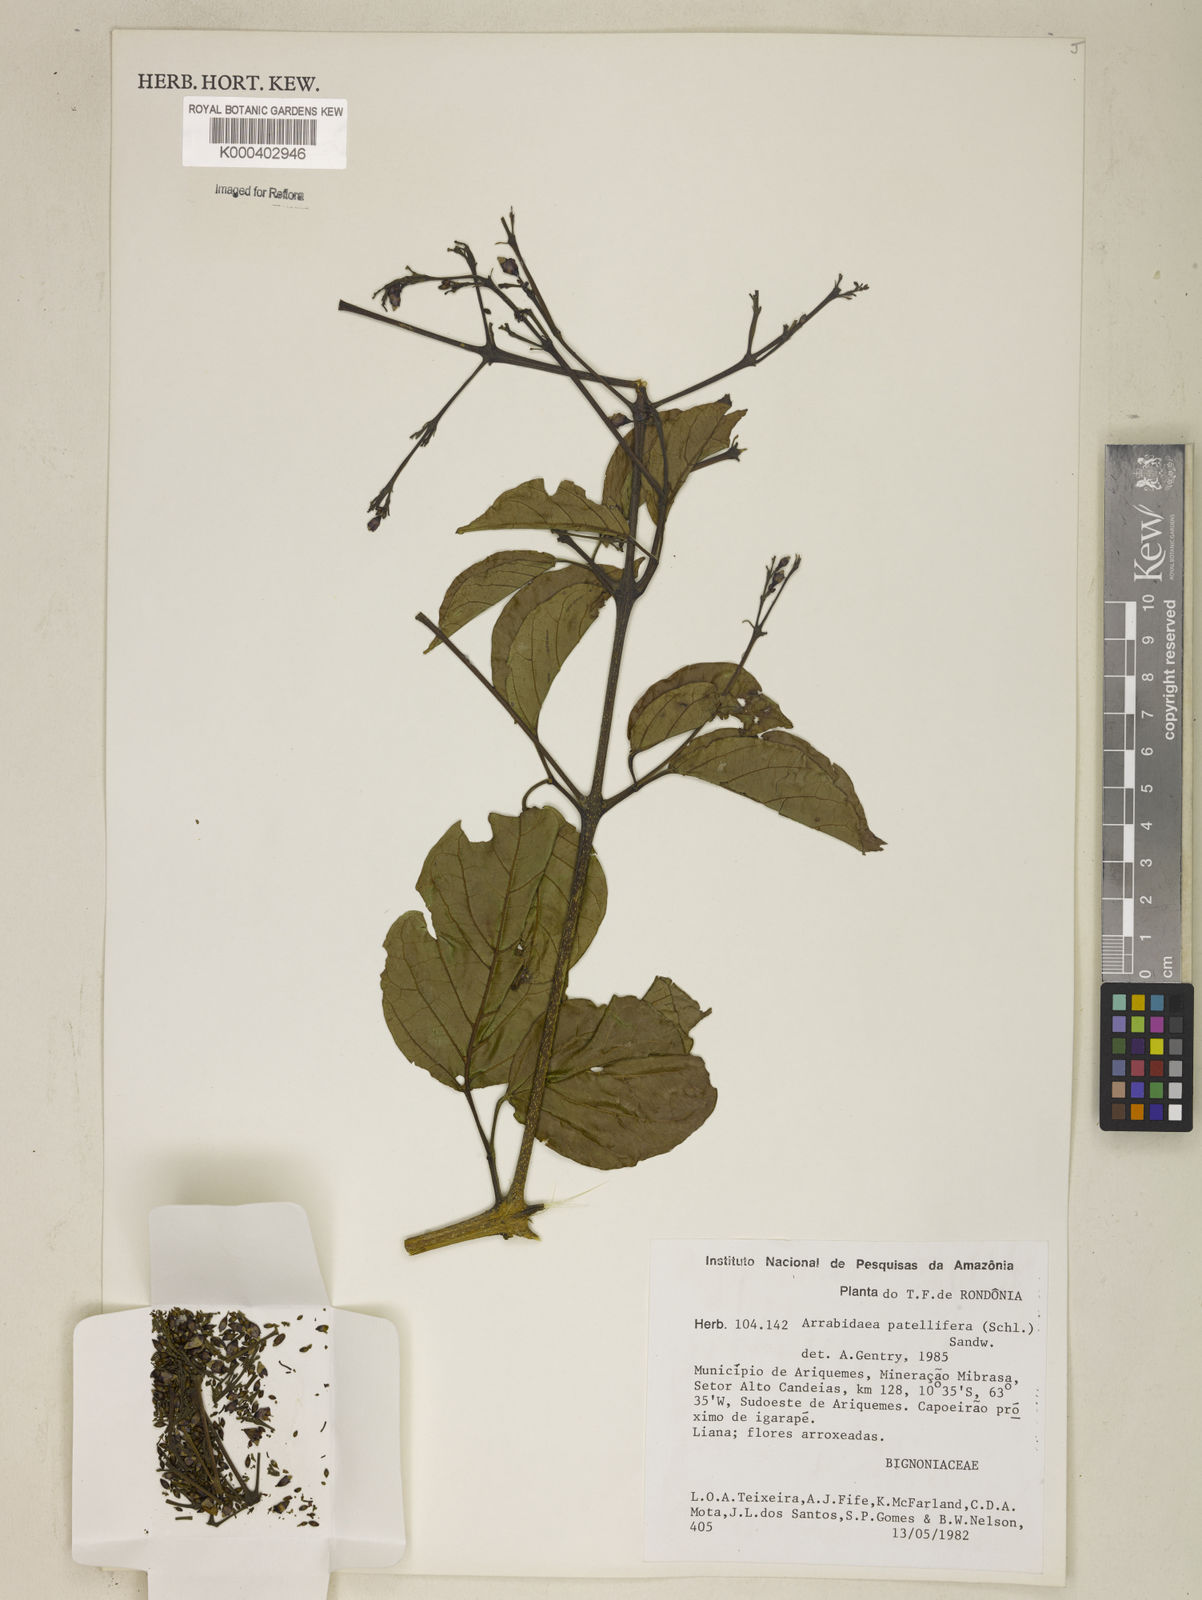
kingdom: Plantae
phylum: Tracheophyta
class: Magnoliopsida
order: Lamiales
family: Bignoniaceae
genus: Fridericia
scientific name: Fridericia patellifera
